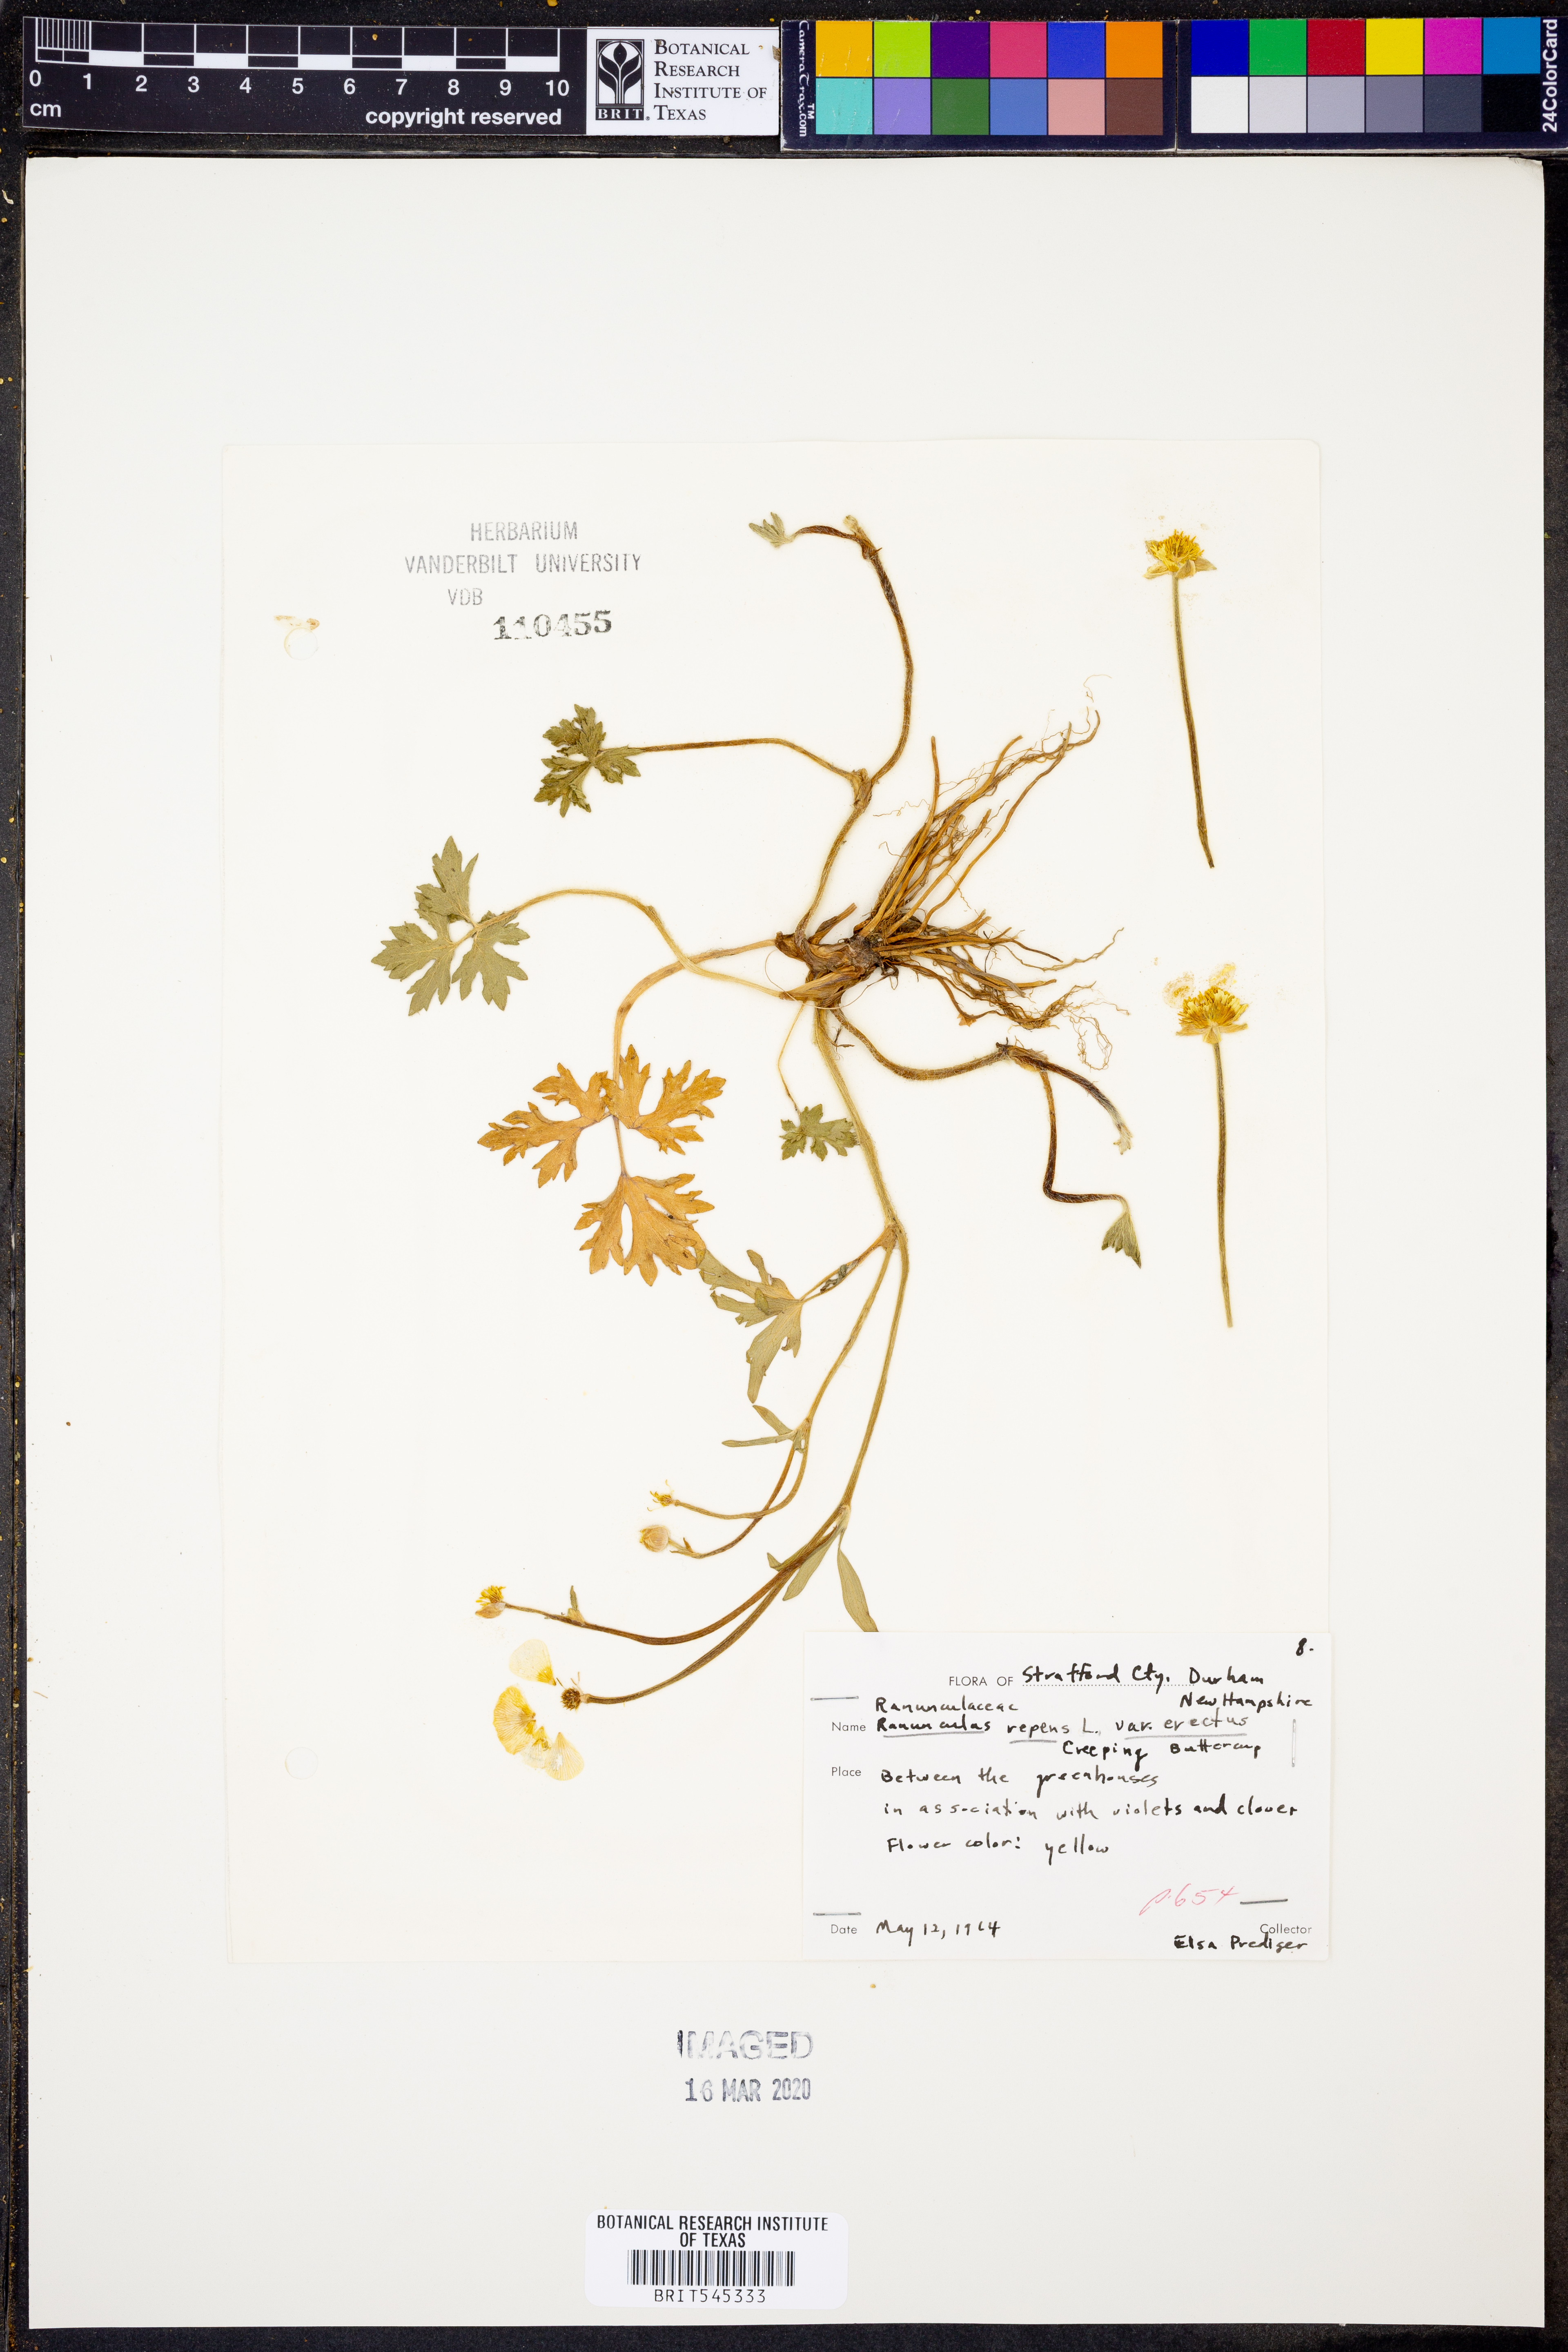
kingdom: Plantae
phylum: Tracheophyta
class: Magnoliopsida
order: Ranunculales
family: Ranunculaceae
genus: Ranunculus
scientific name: Ranunculus repens
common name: Creeping buttercup
